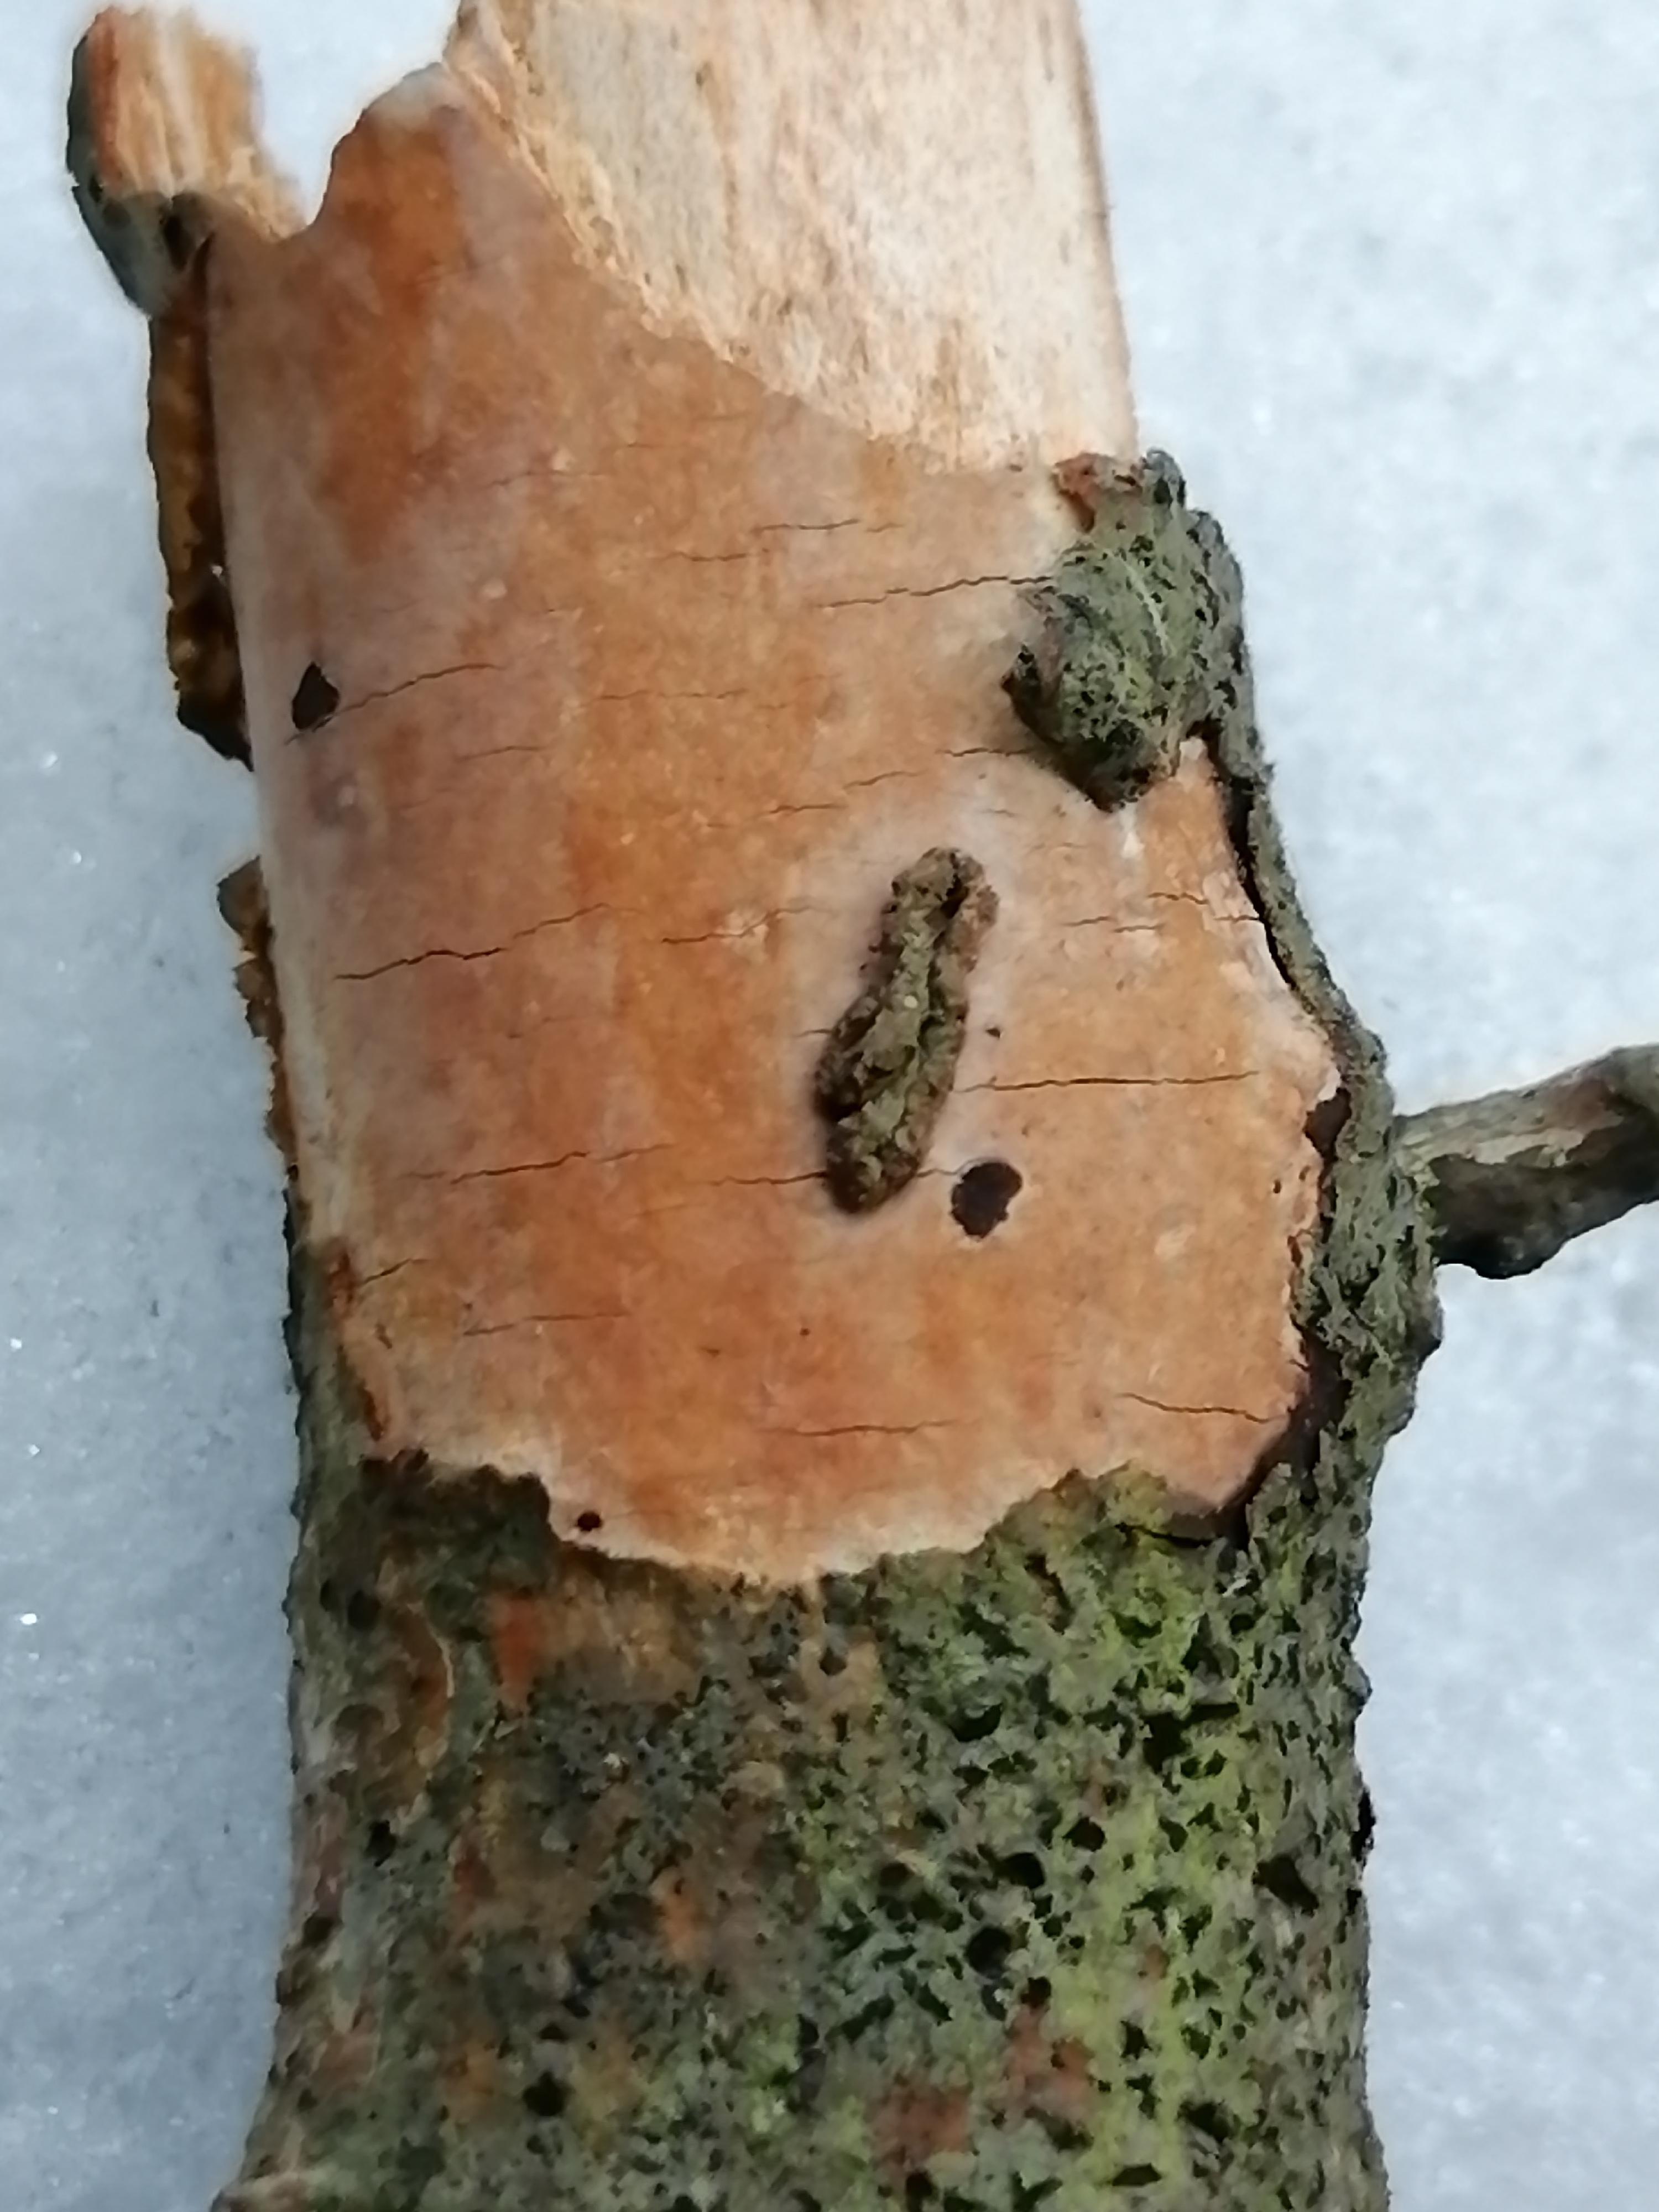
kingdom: Fungi
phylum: Basidiomycota
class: Agaricomycetes
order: Corticiales
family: Vuilleminiaceae
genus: Vuilleminia
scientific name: Vuilleminia comedens
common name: almindelig barksprænger
